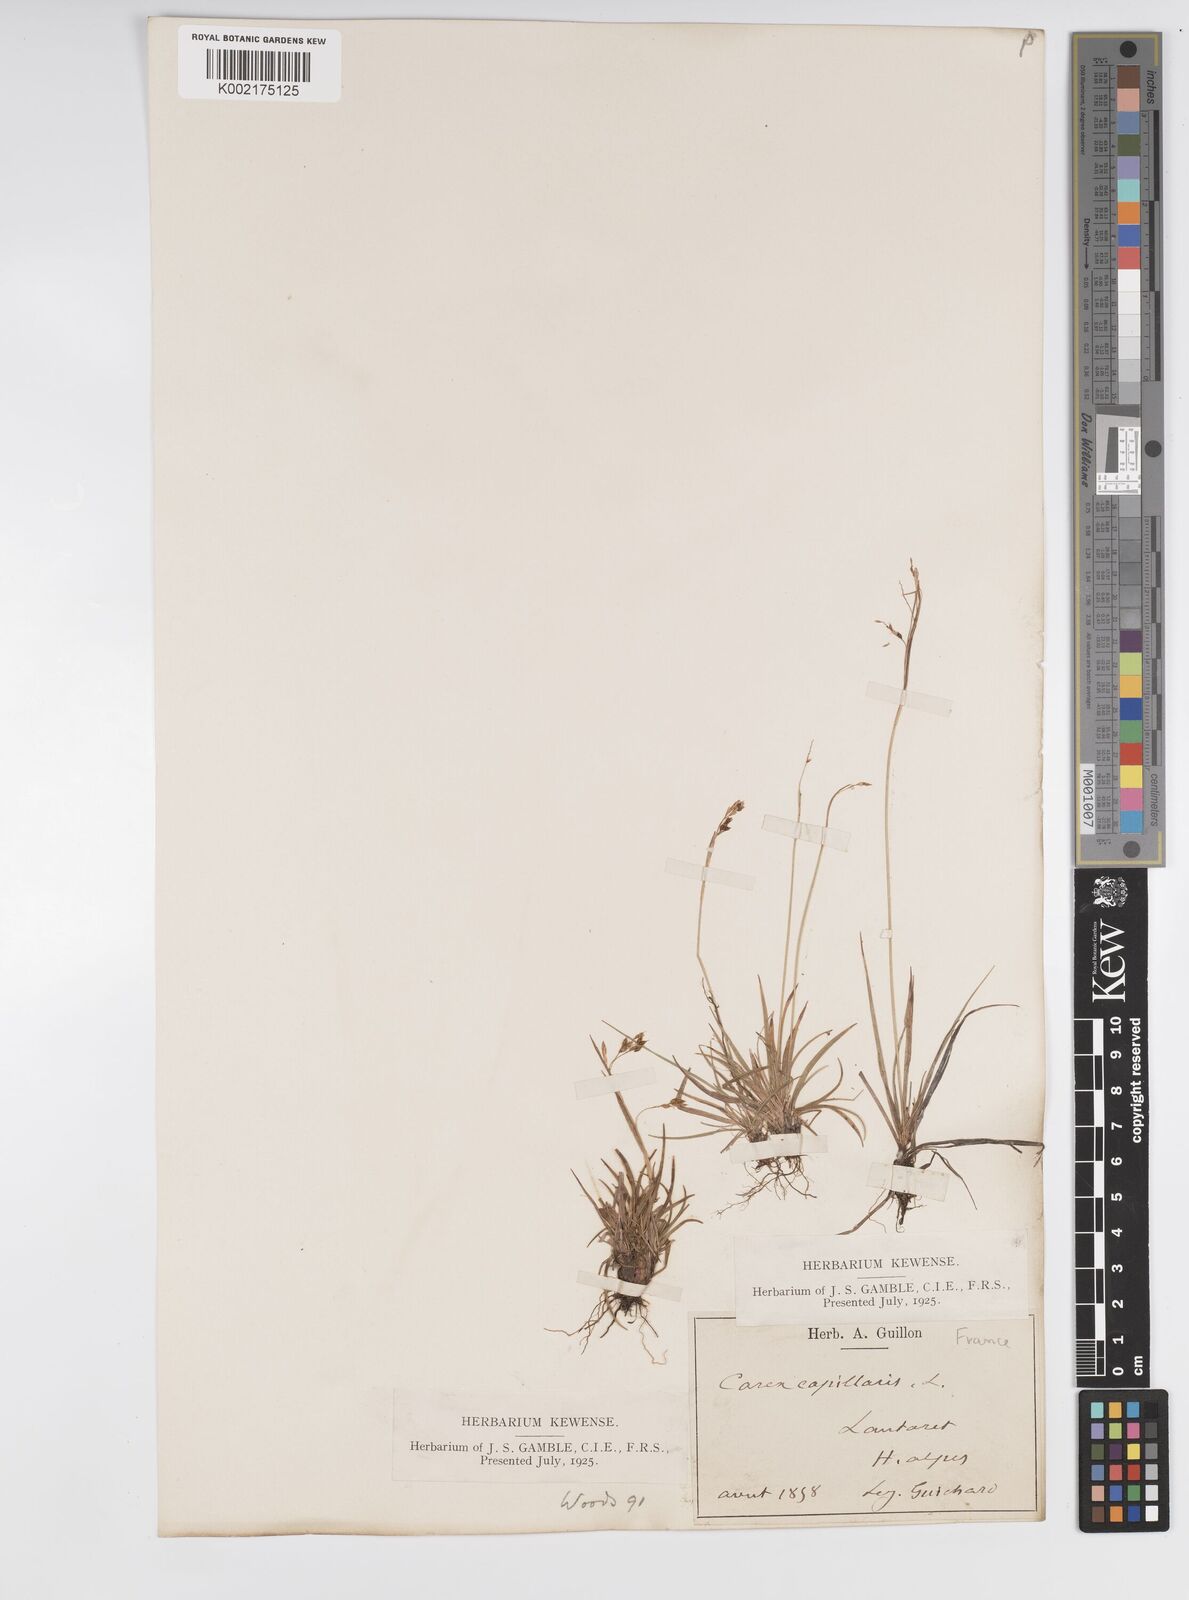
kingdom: Plantae
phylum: Tracheophyta
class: Liliopsida
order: Poales
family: Cyperaceae
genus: Carex
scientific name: Carex capillaris
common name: Hair sedge
